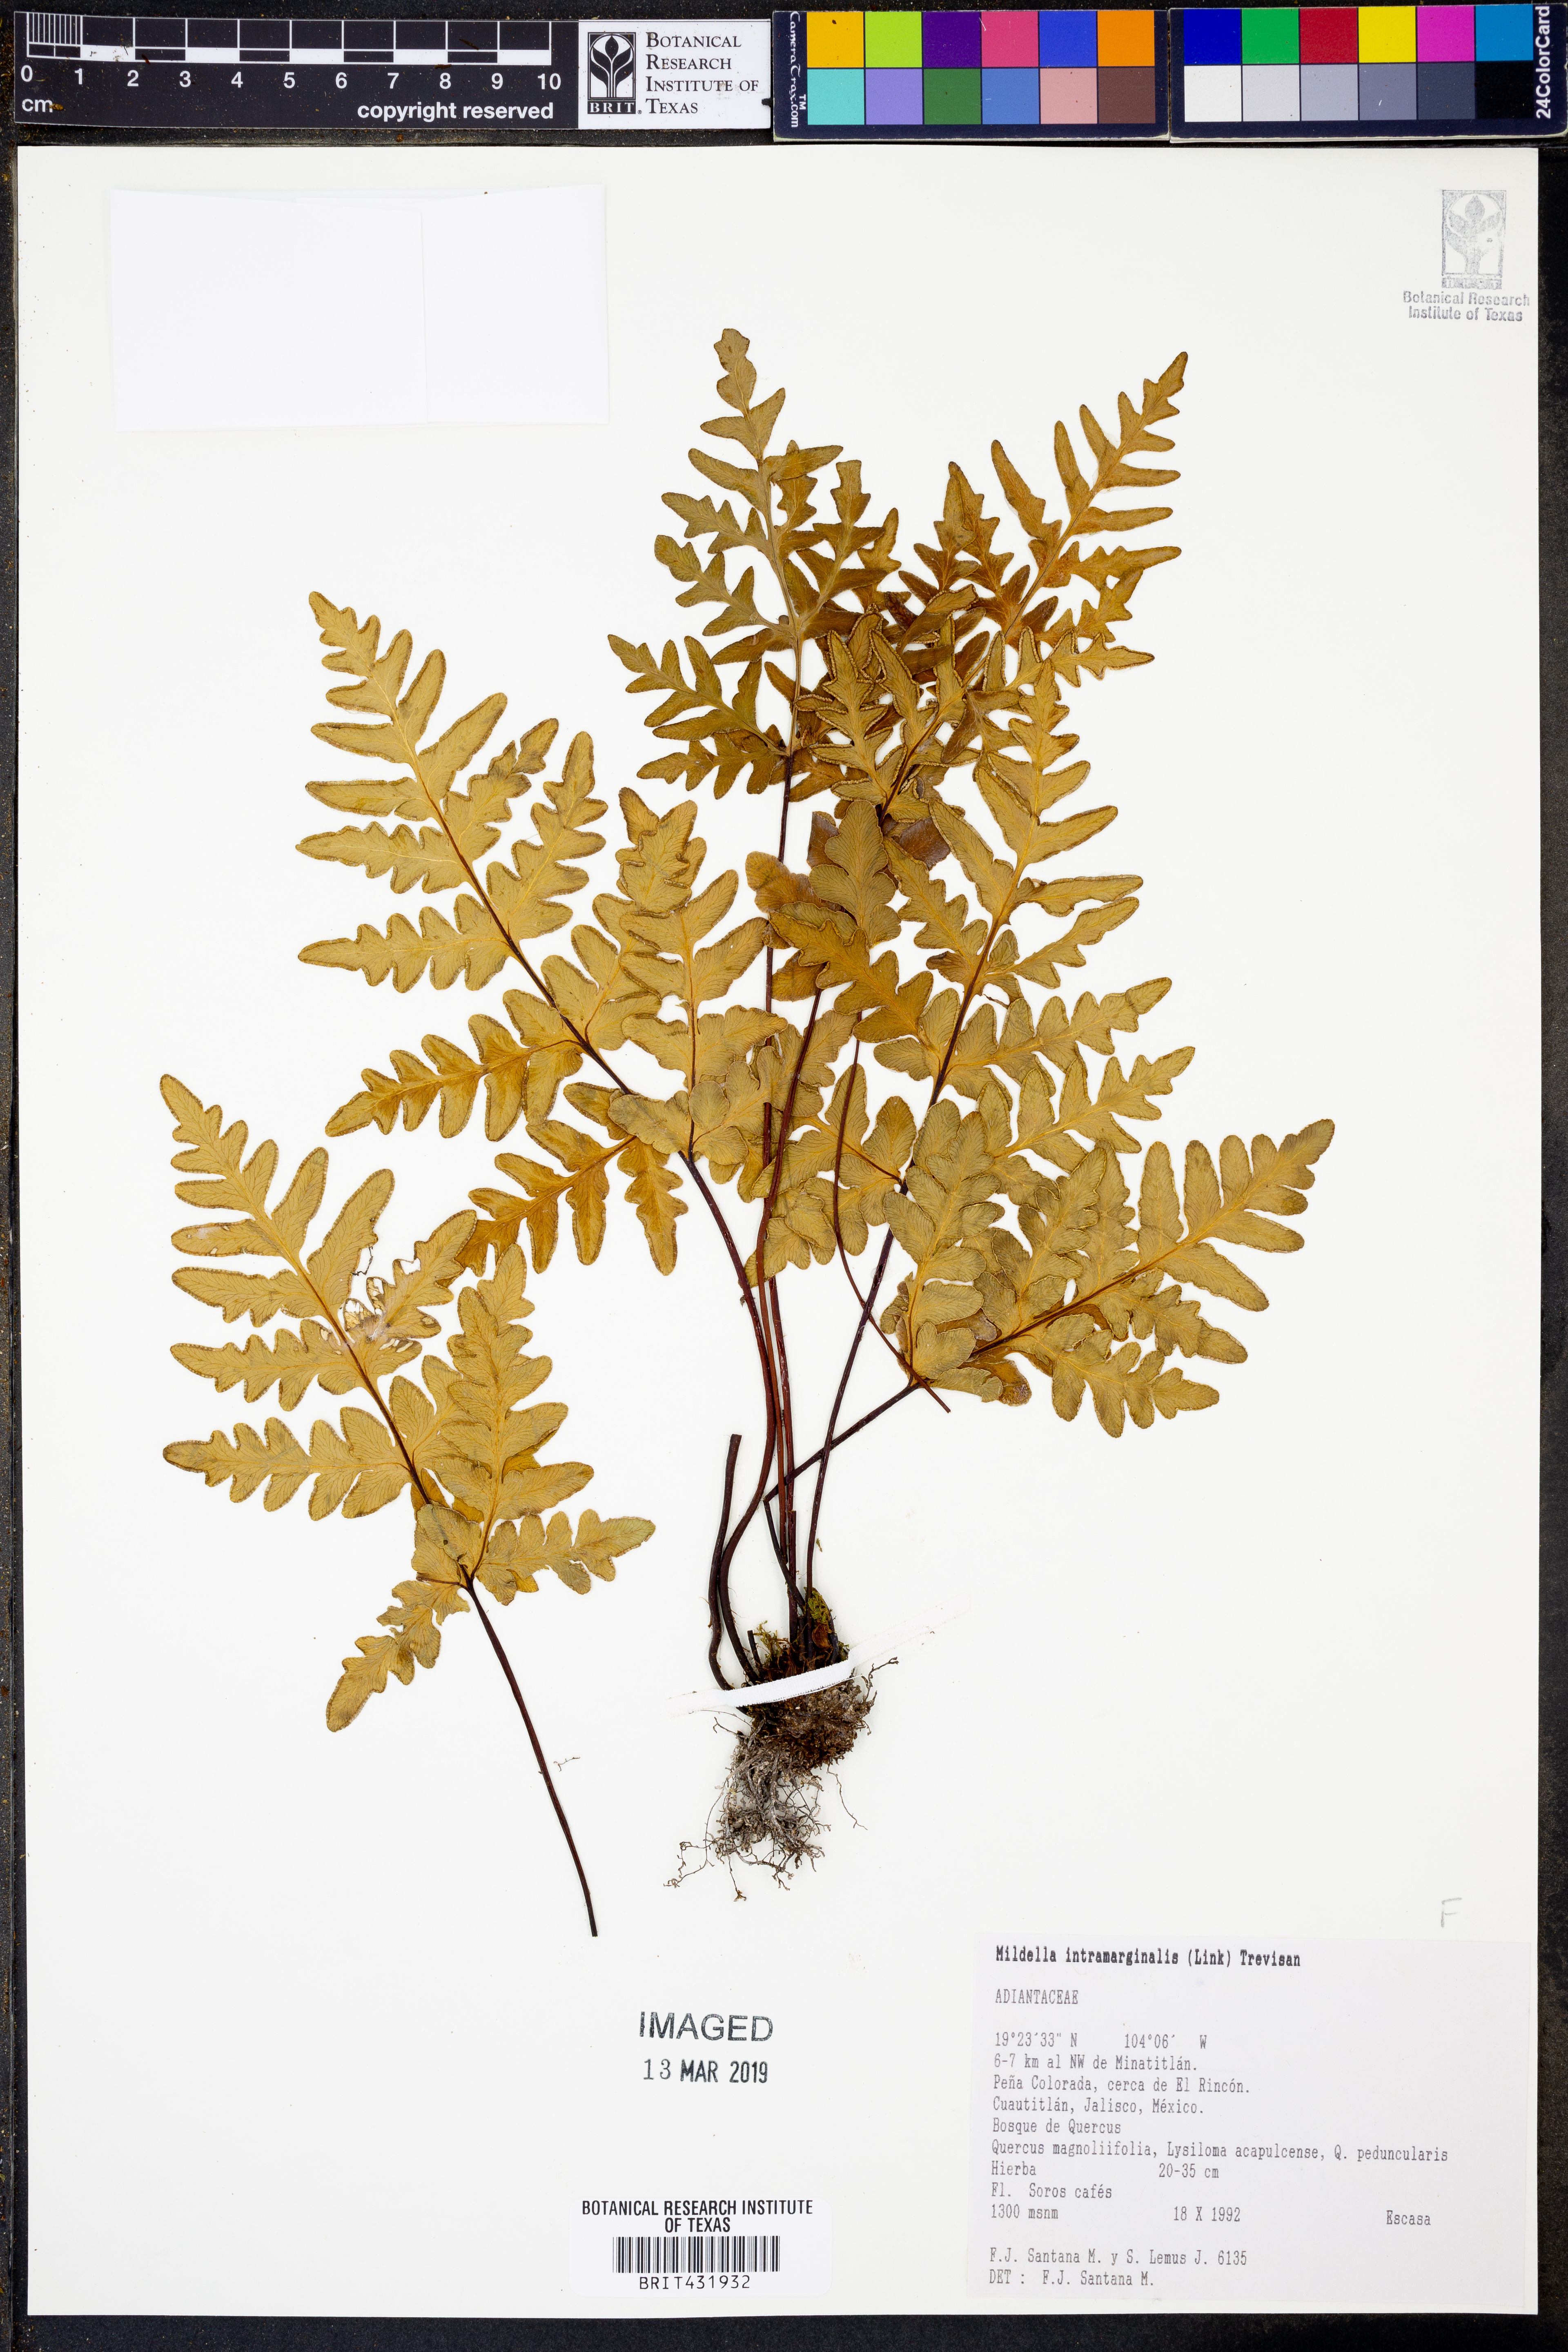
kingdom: Plantae
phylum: Tracheophyta
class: Polypodiopsida
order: Polypodiales
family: Pteridaceae
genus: Mildella
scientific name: Mildella intramarginalis
